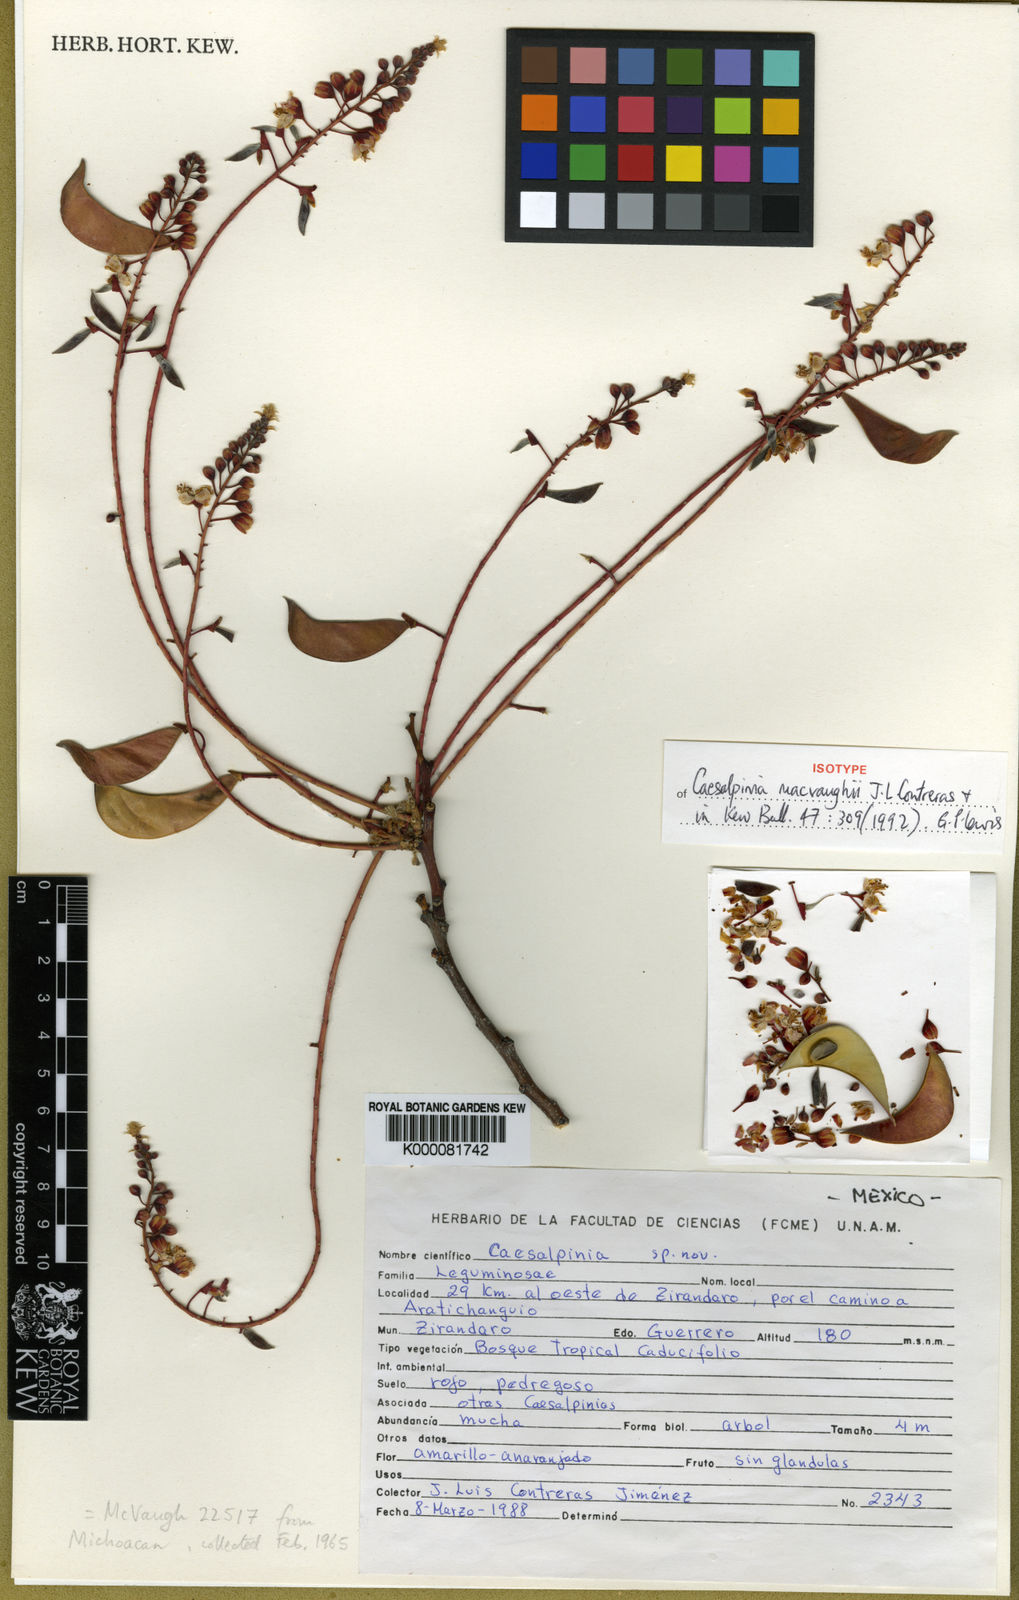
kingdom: Plantae
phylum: Tracheophyta
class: Magnoliopsida
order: Fabales
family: Fabaceae
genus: Erythrostemon
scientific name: Erythrostemon macvaughii
